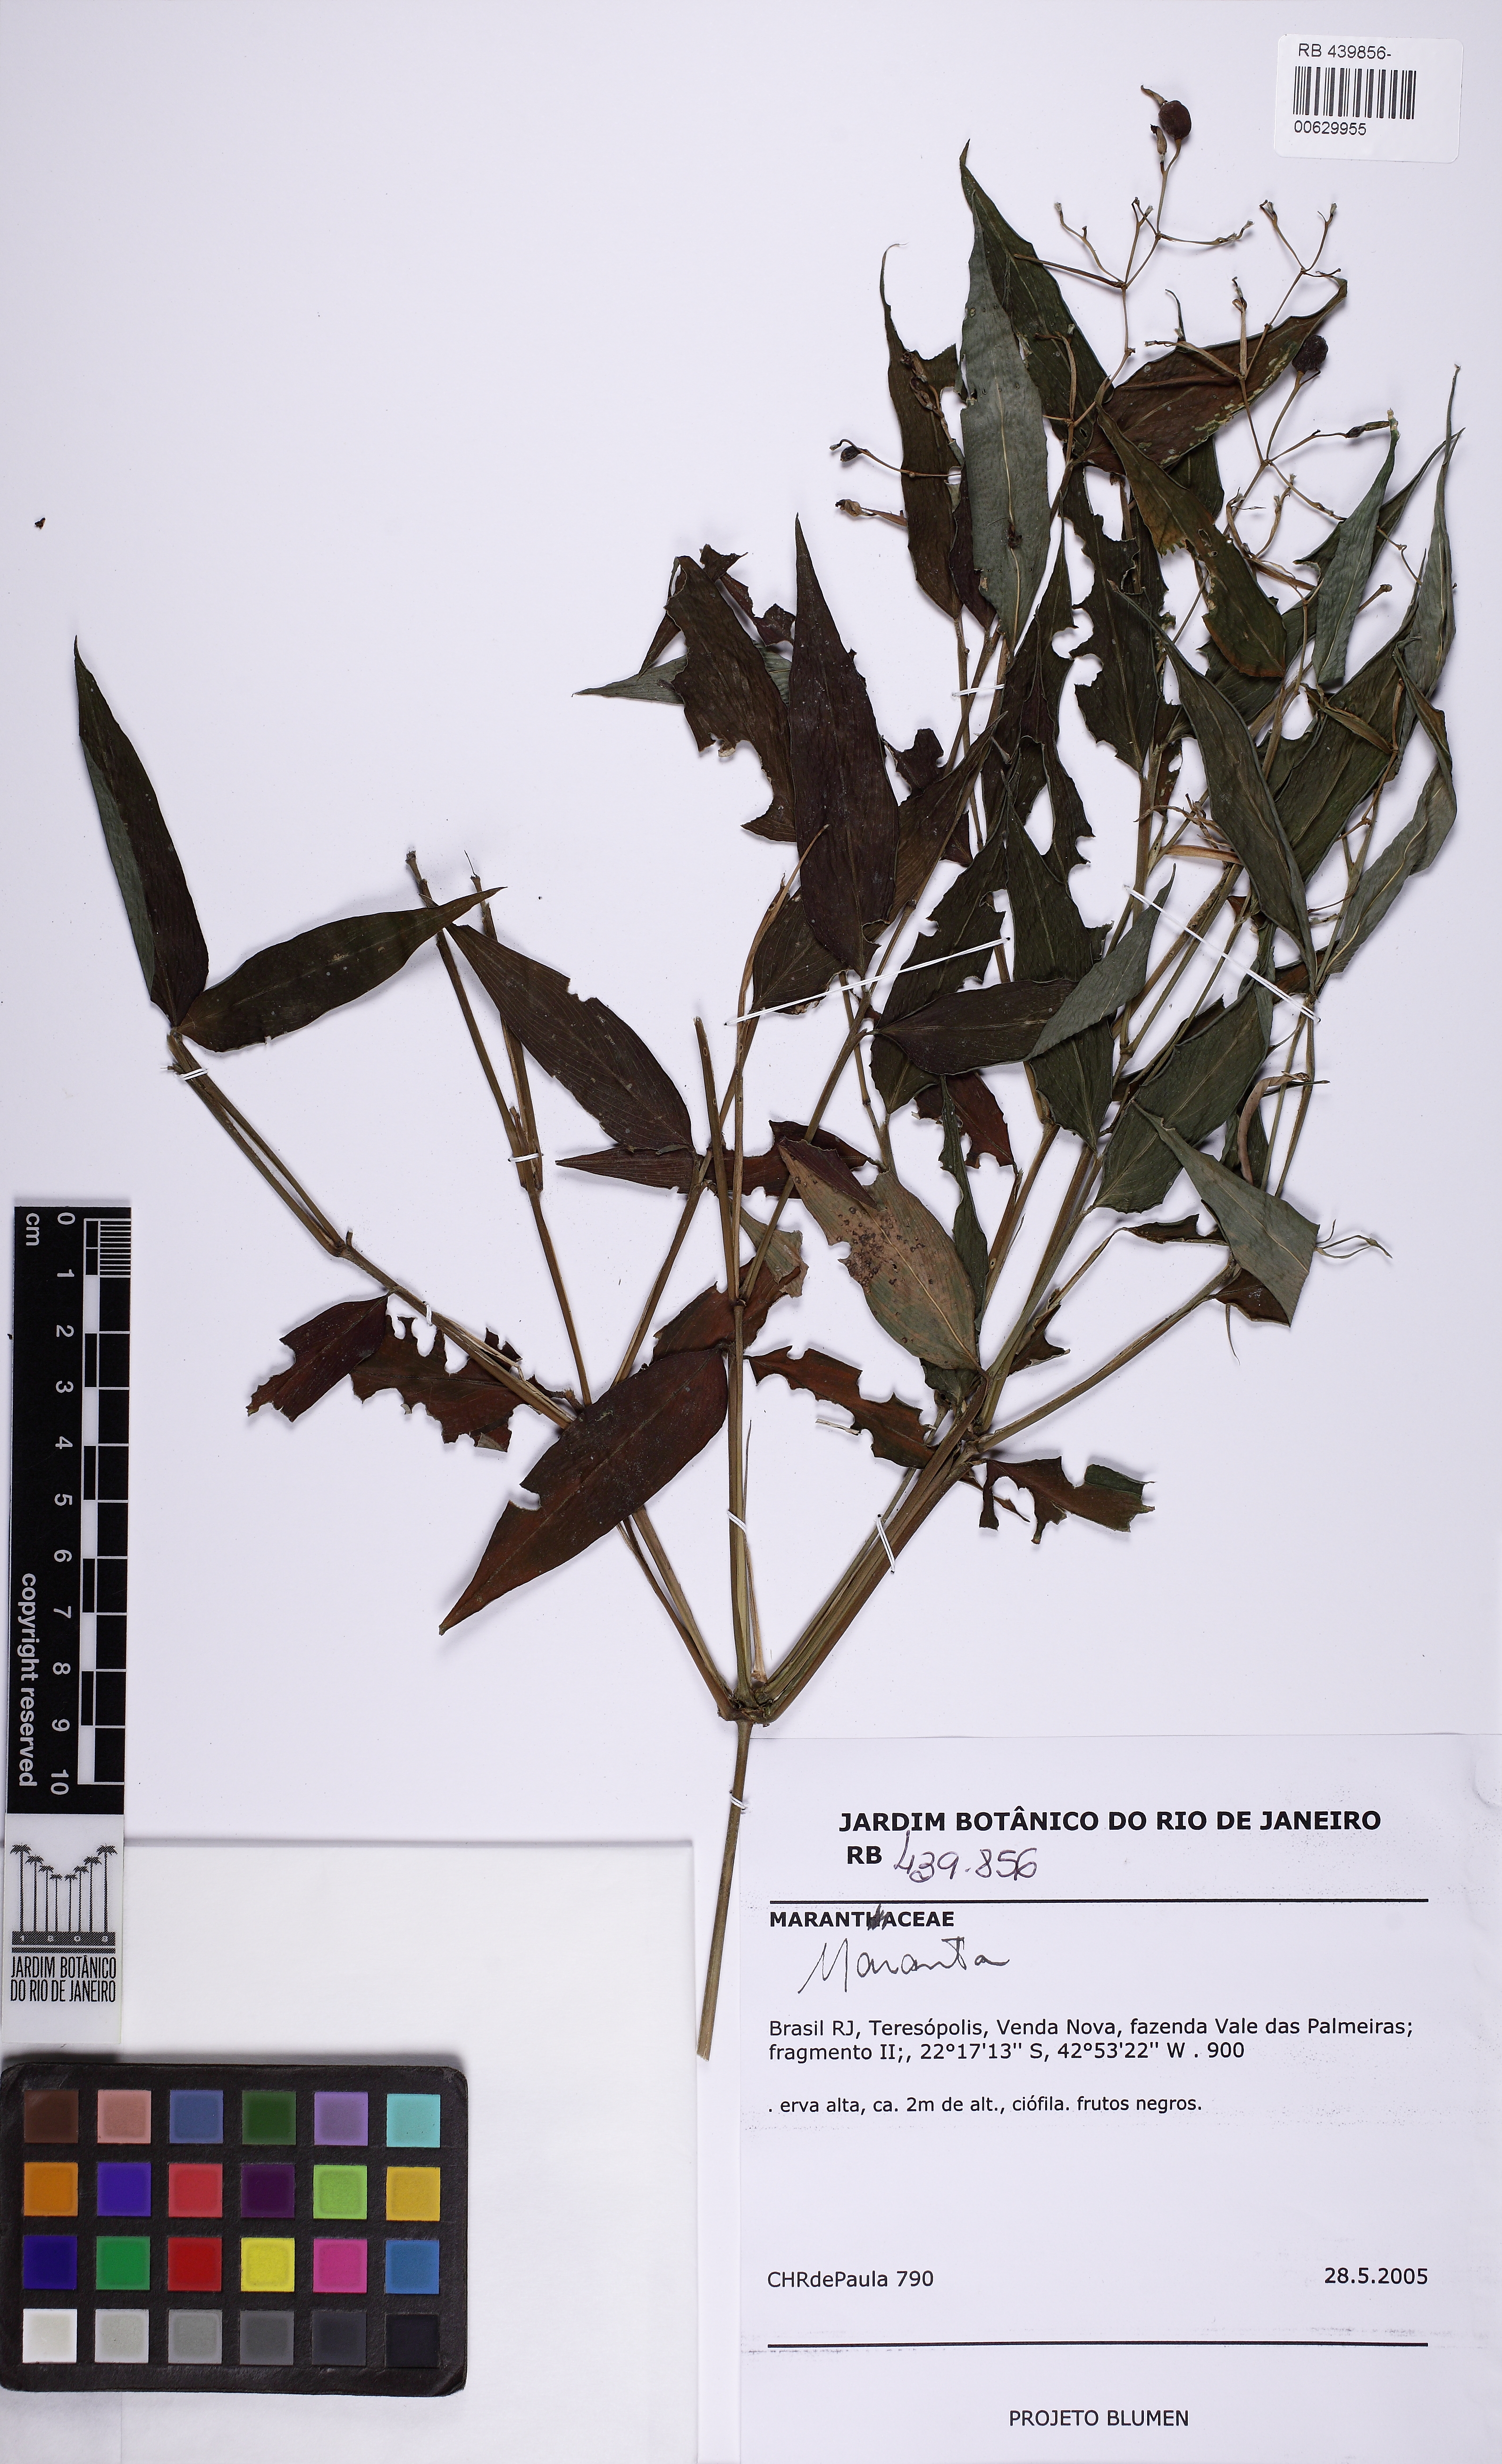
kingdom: Plantae
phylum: Tracheophyta
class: Liliopsida
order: Zingiberales
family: Marantaceae
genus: Stromanthe
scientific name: Stromanthe tonckat
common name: Stromanthe
